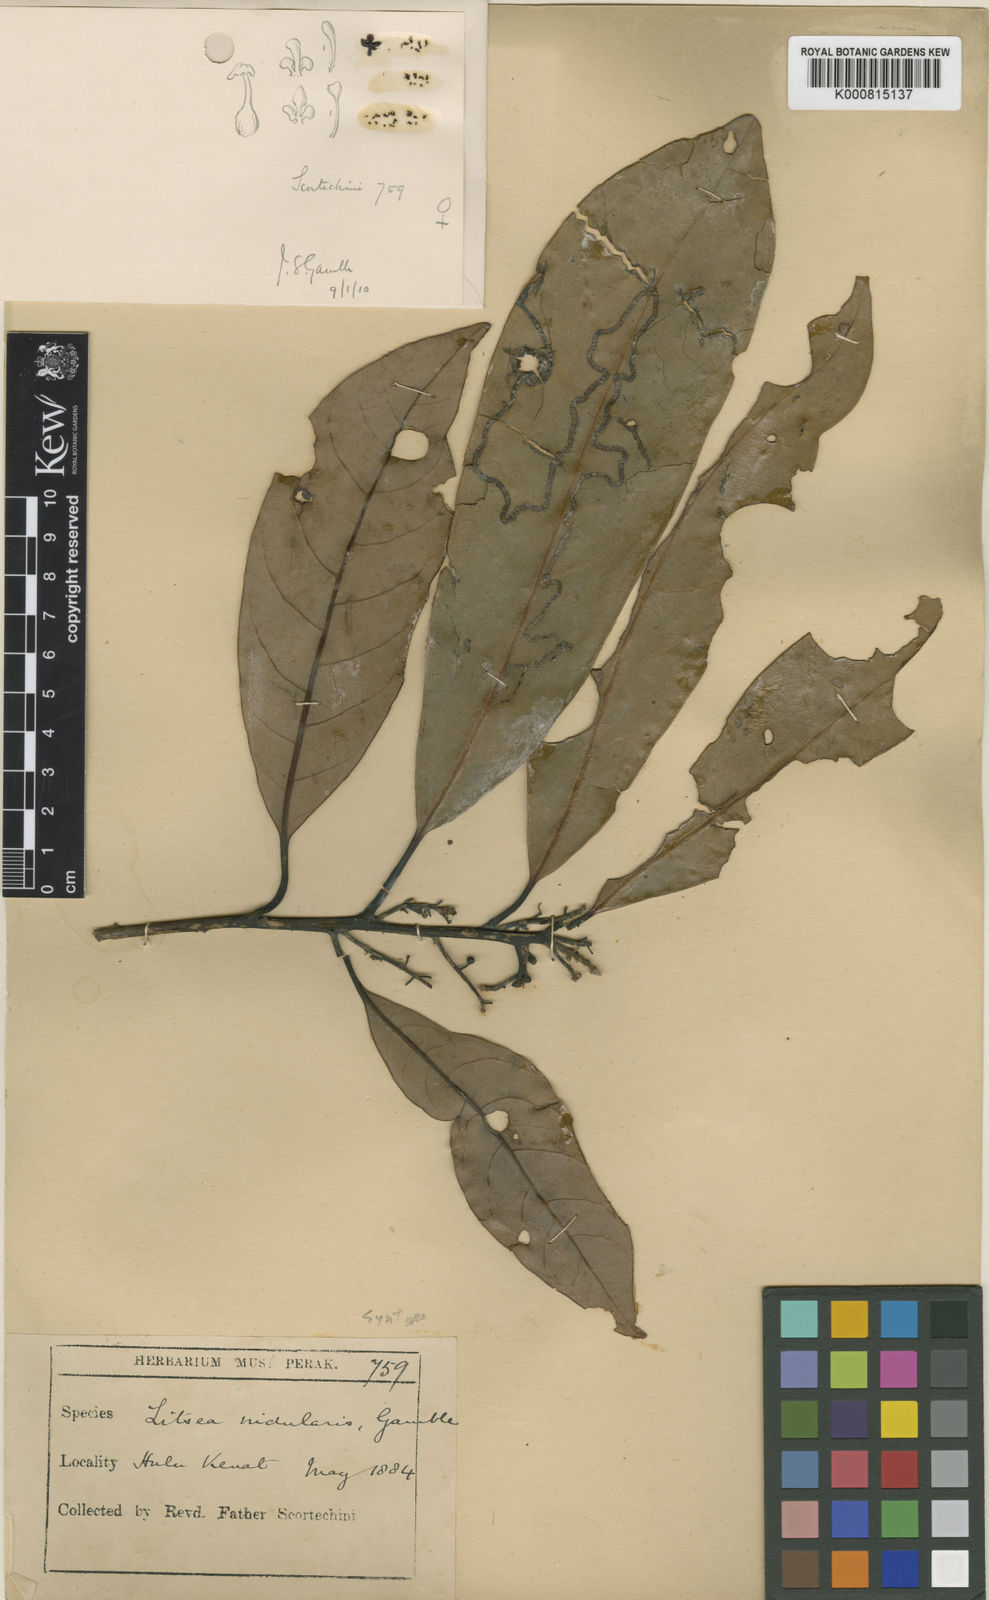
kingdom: Plantae
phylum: Tracheophyta
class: Magnoliopsida
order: Laurales
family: Lauraceae
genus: Litsea
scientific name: Litsea costalis
